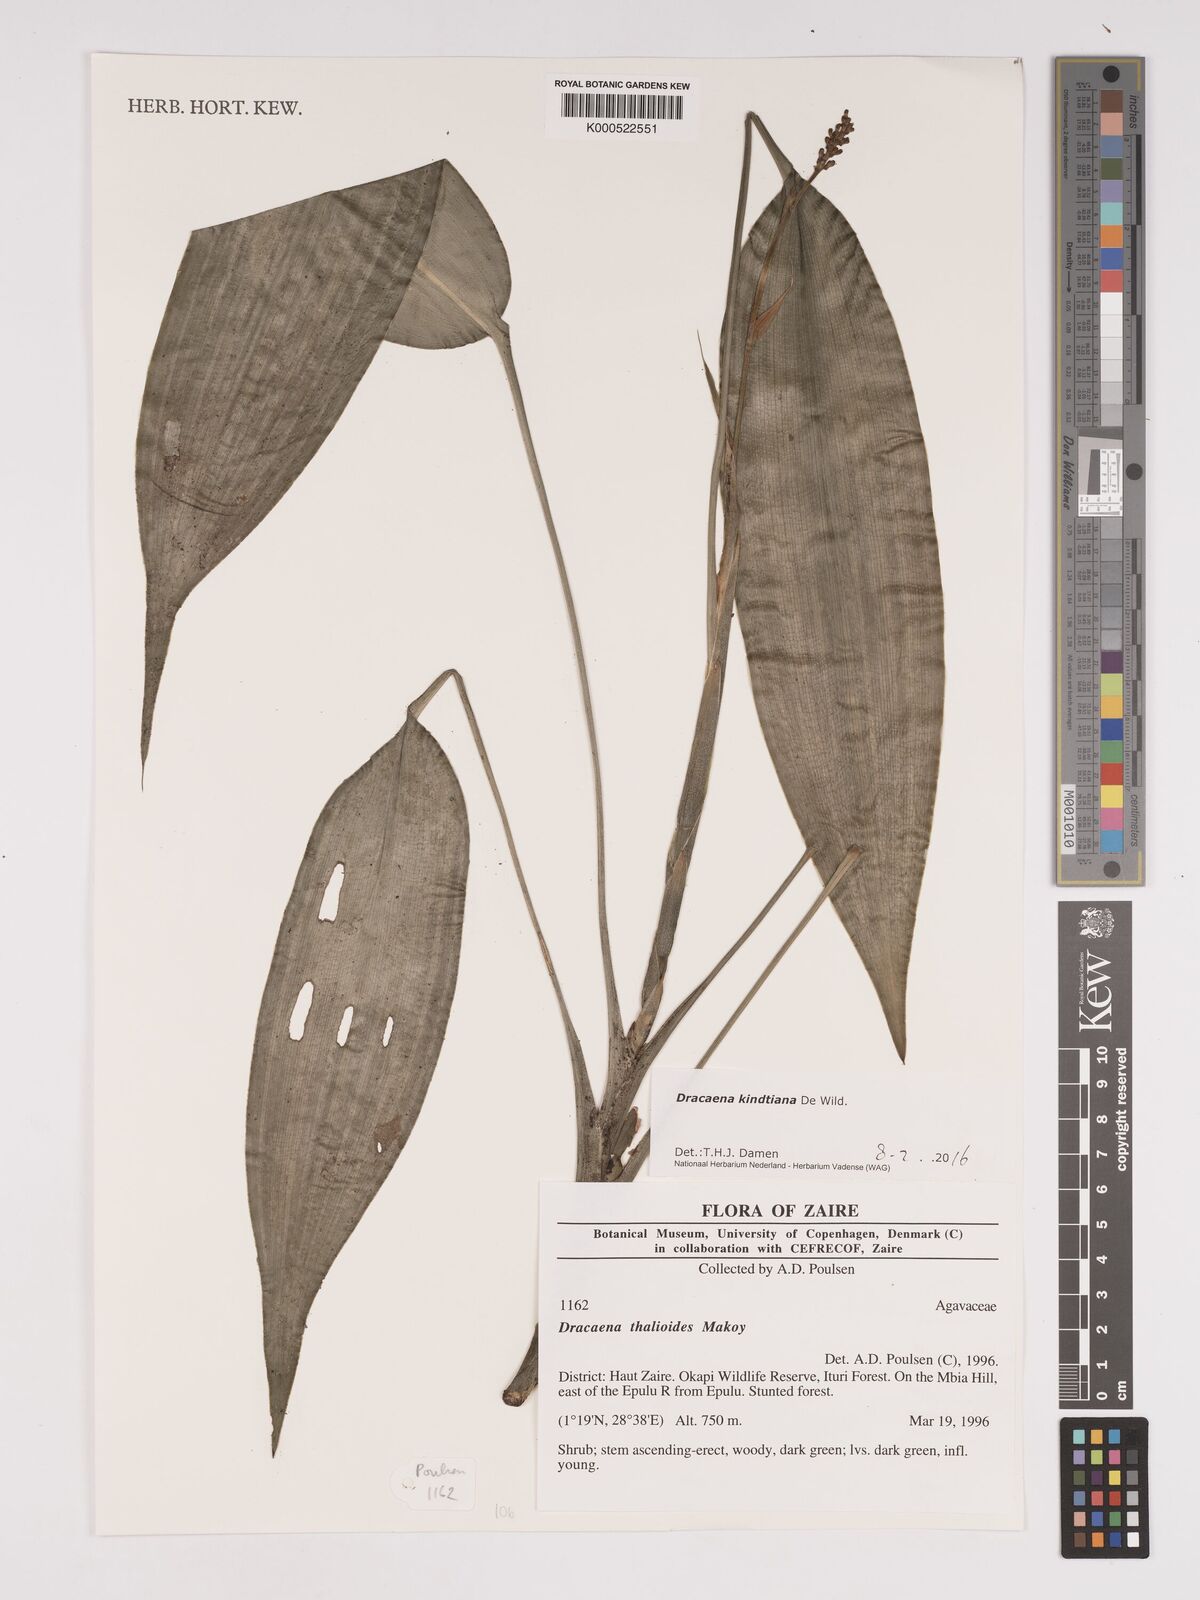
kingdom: Plantae
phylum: Tracheophyta
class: Liliopsida
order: Asparagales
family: Asparagaceae
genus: Dracaena
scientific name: Dracaena kindtiana
